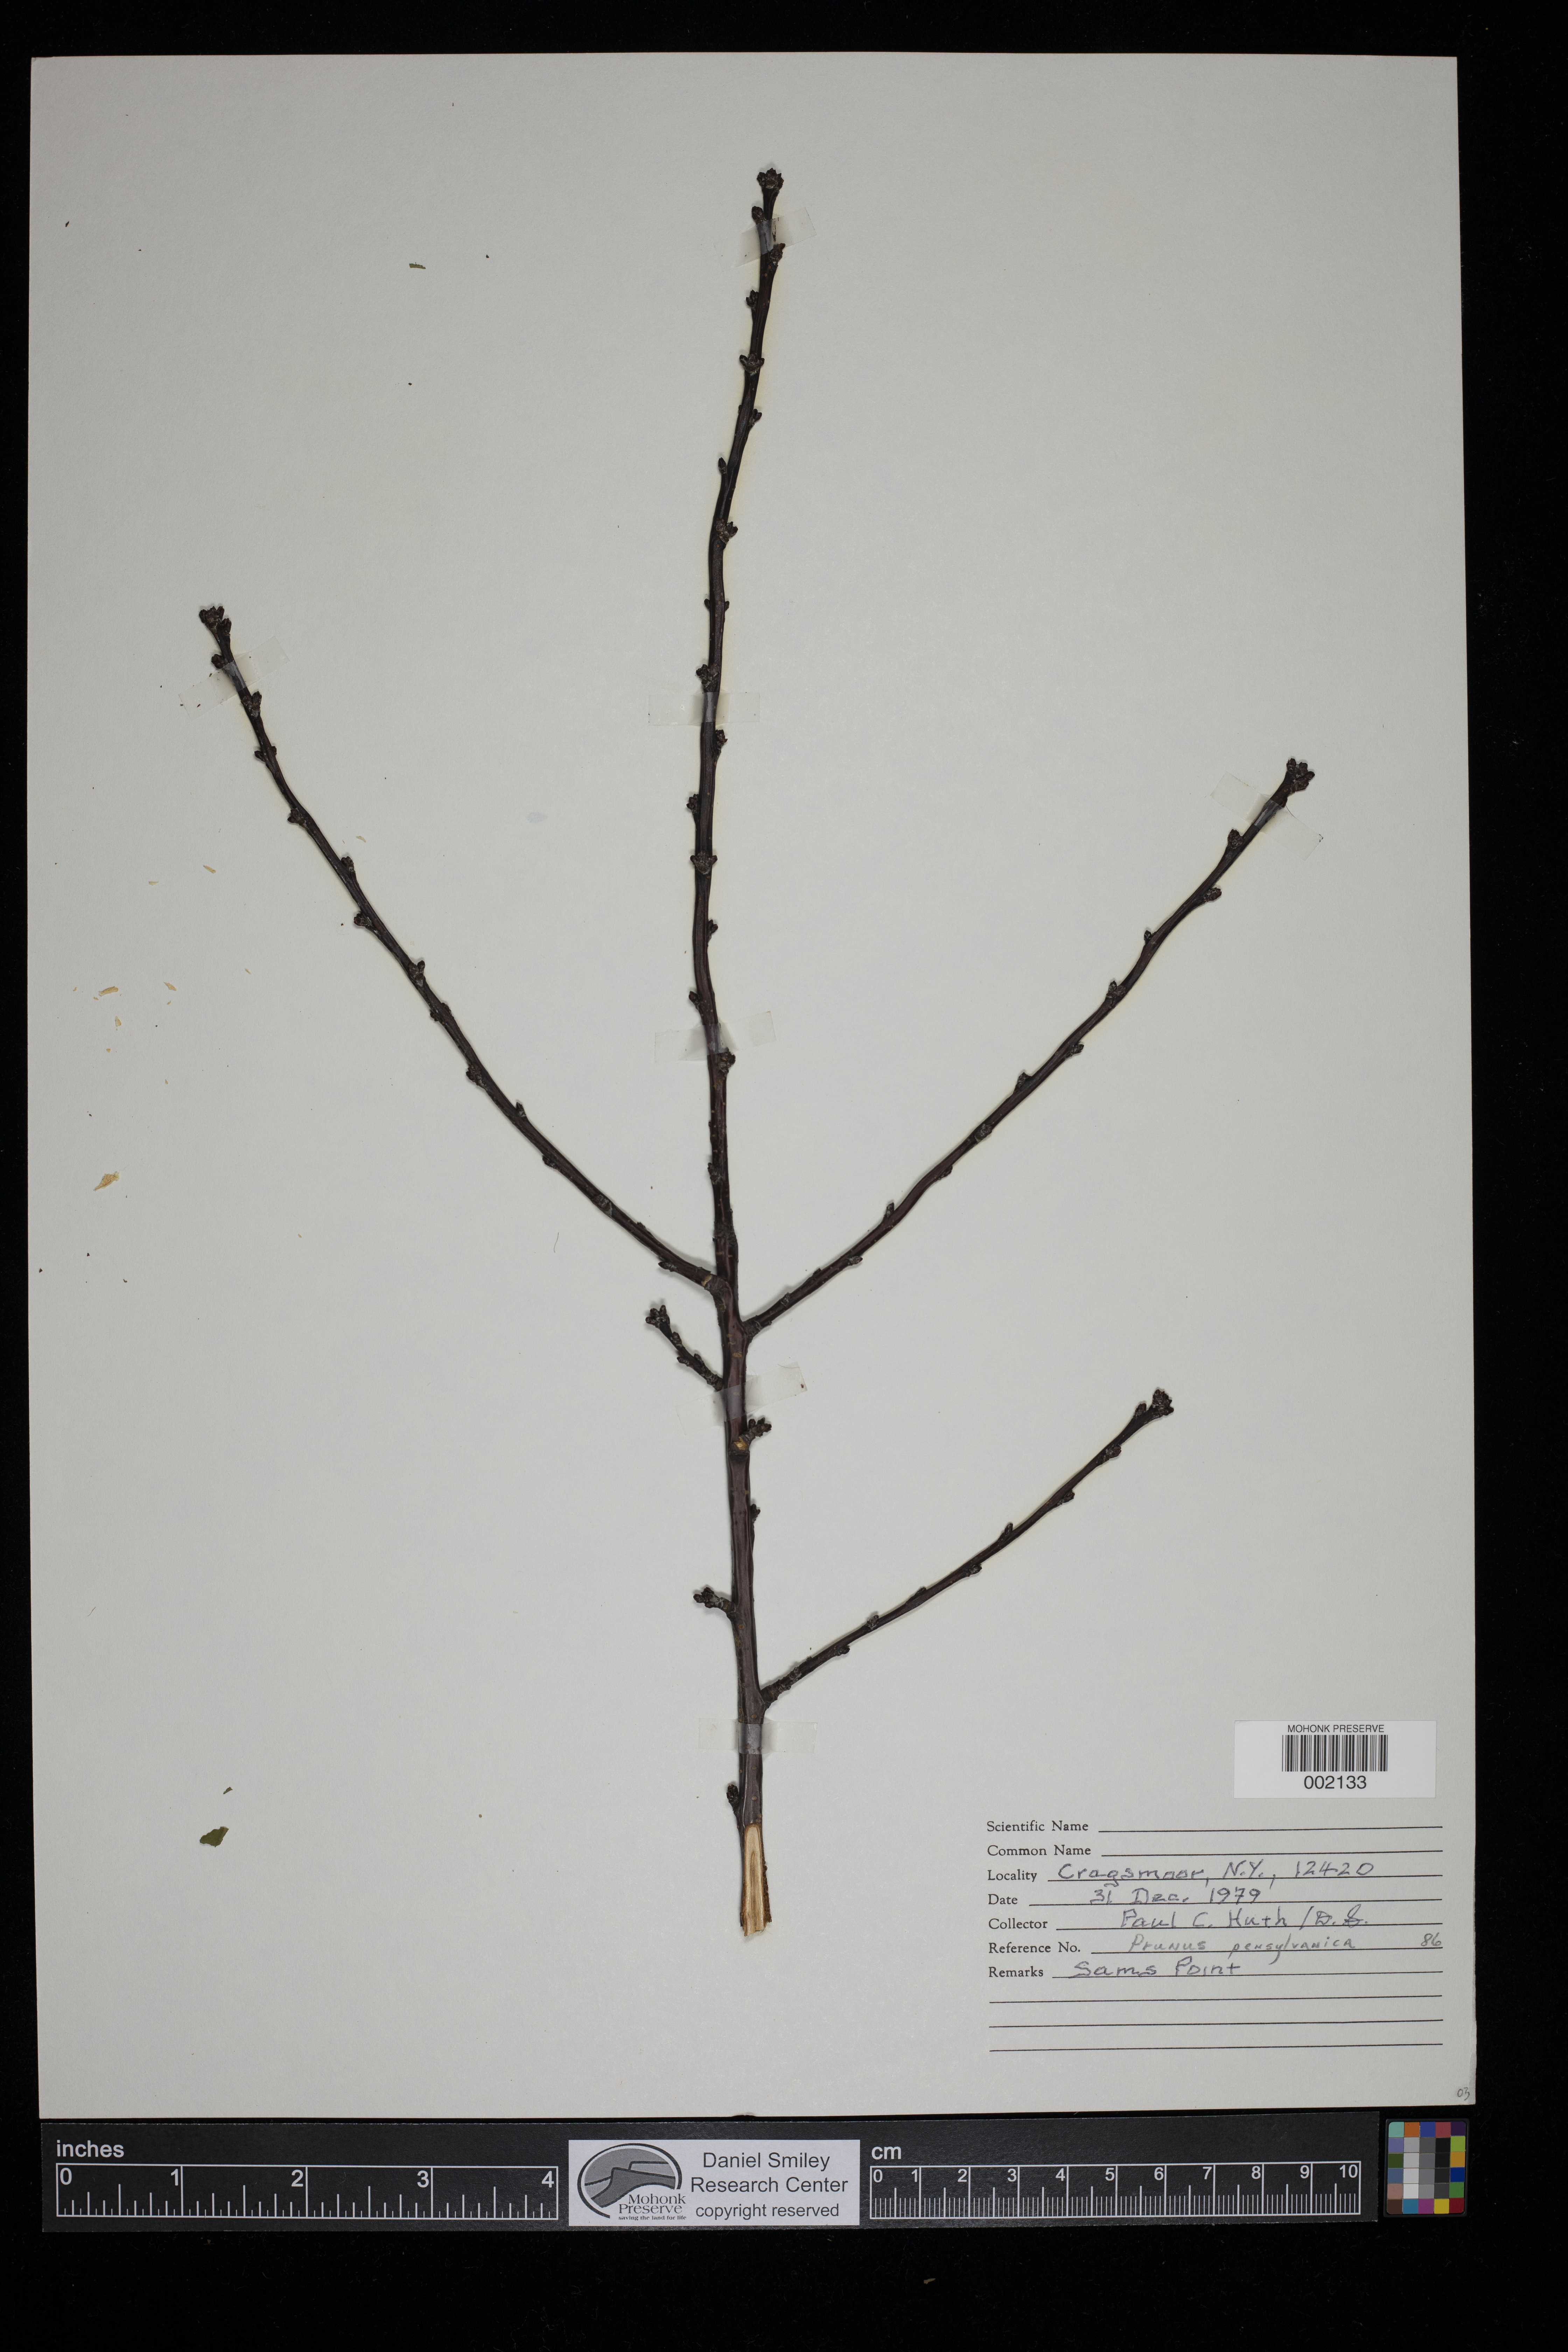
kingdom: Plantae
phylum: Tracheophyta
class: Magnoliopsida
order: Rosales
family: Rosaceae
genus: Prunus
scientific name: Prunus pensylvanica
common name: Pin cherry
